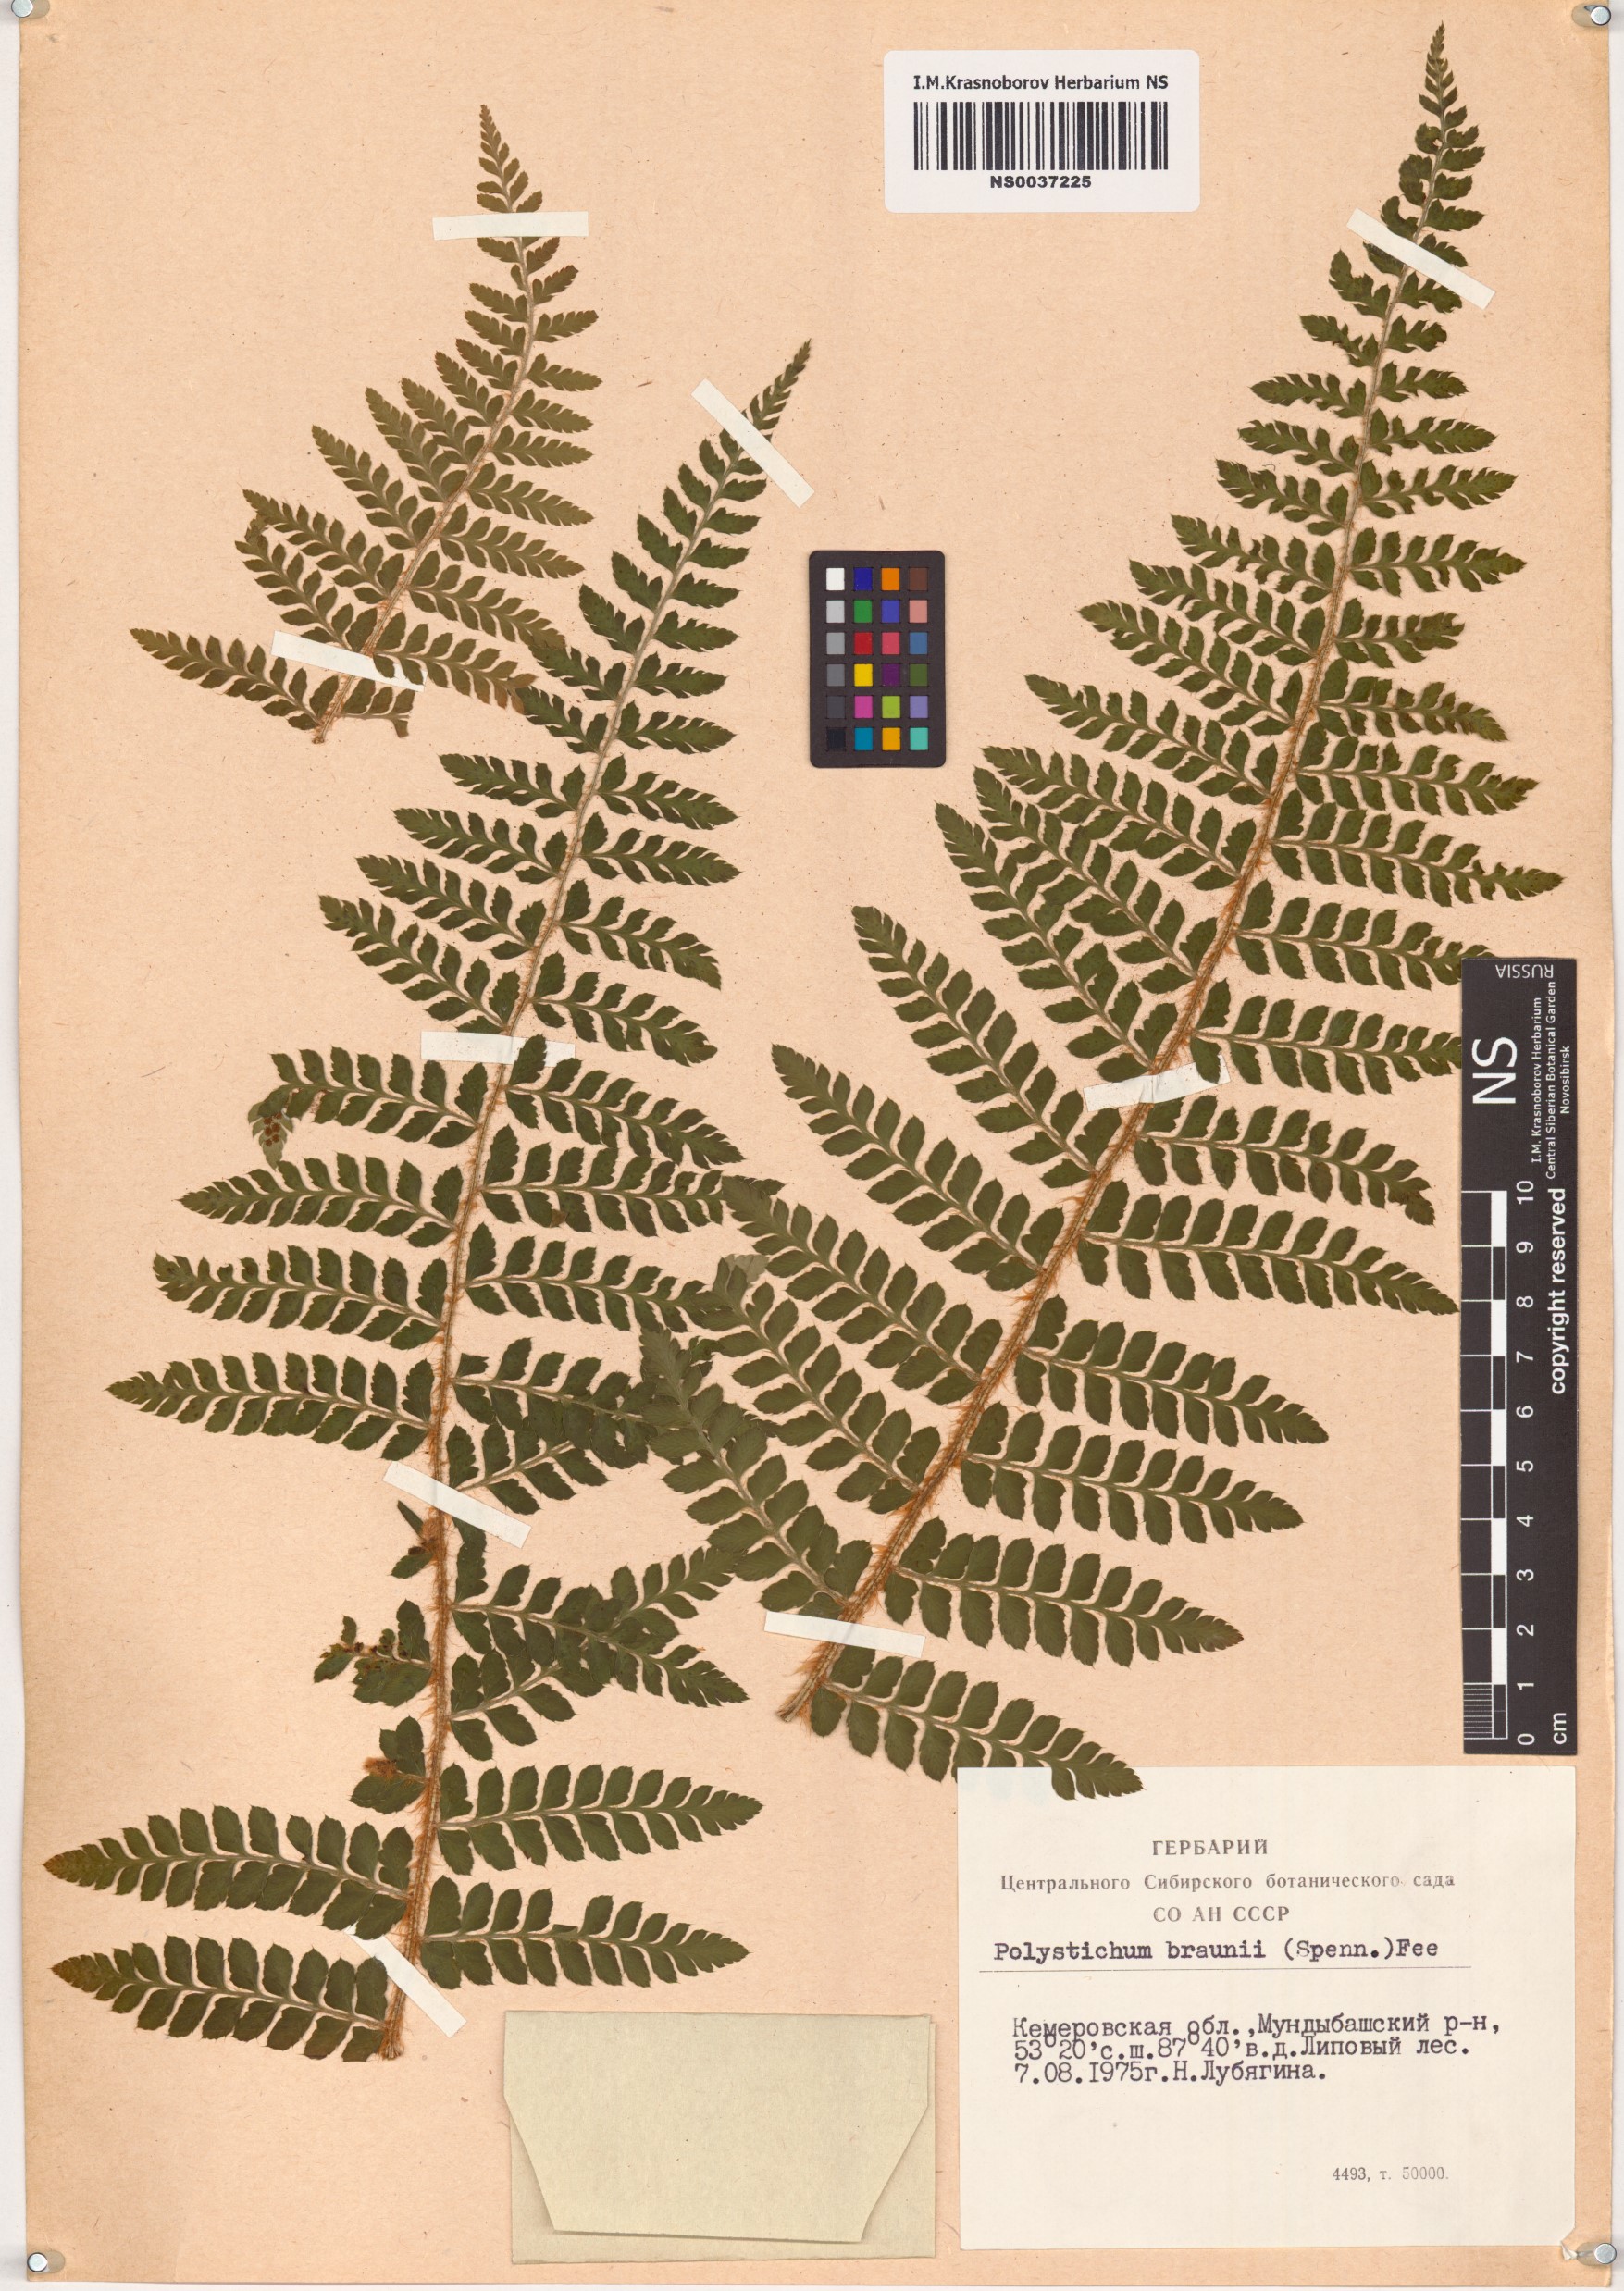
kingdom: Plantae
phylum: Tracheophyta
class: Polypodiopsida
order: Polypodiales
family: Dryopteridaceae
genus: Polystichum
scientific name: Polystichum braunii
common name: Braun's holly fern
